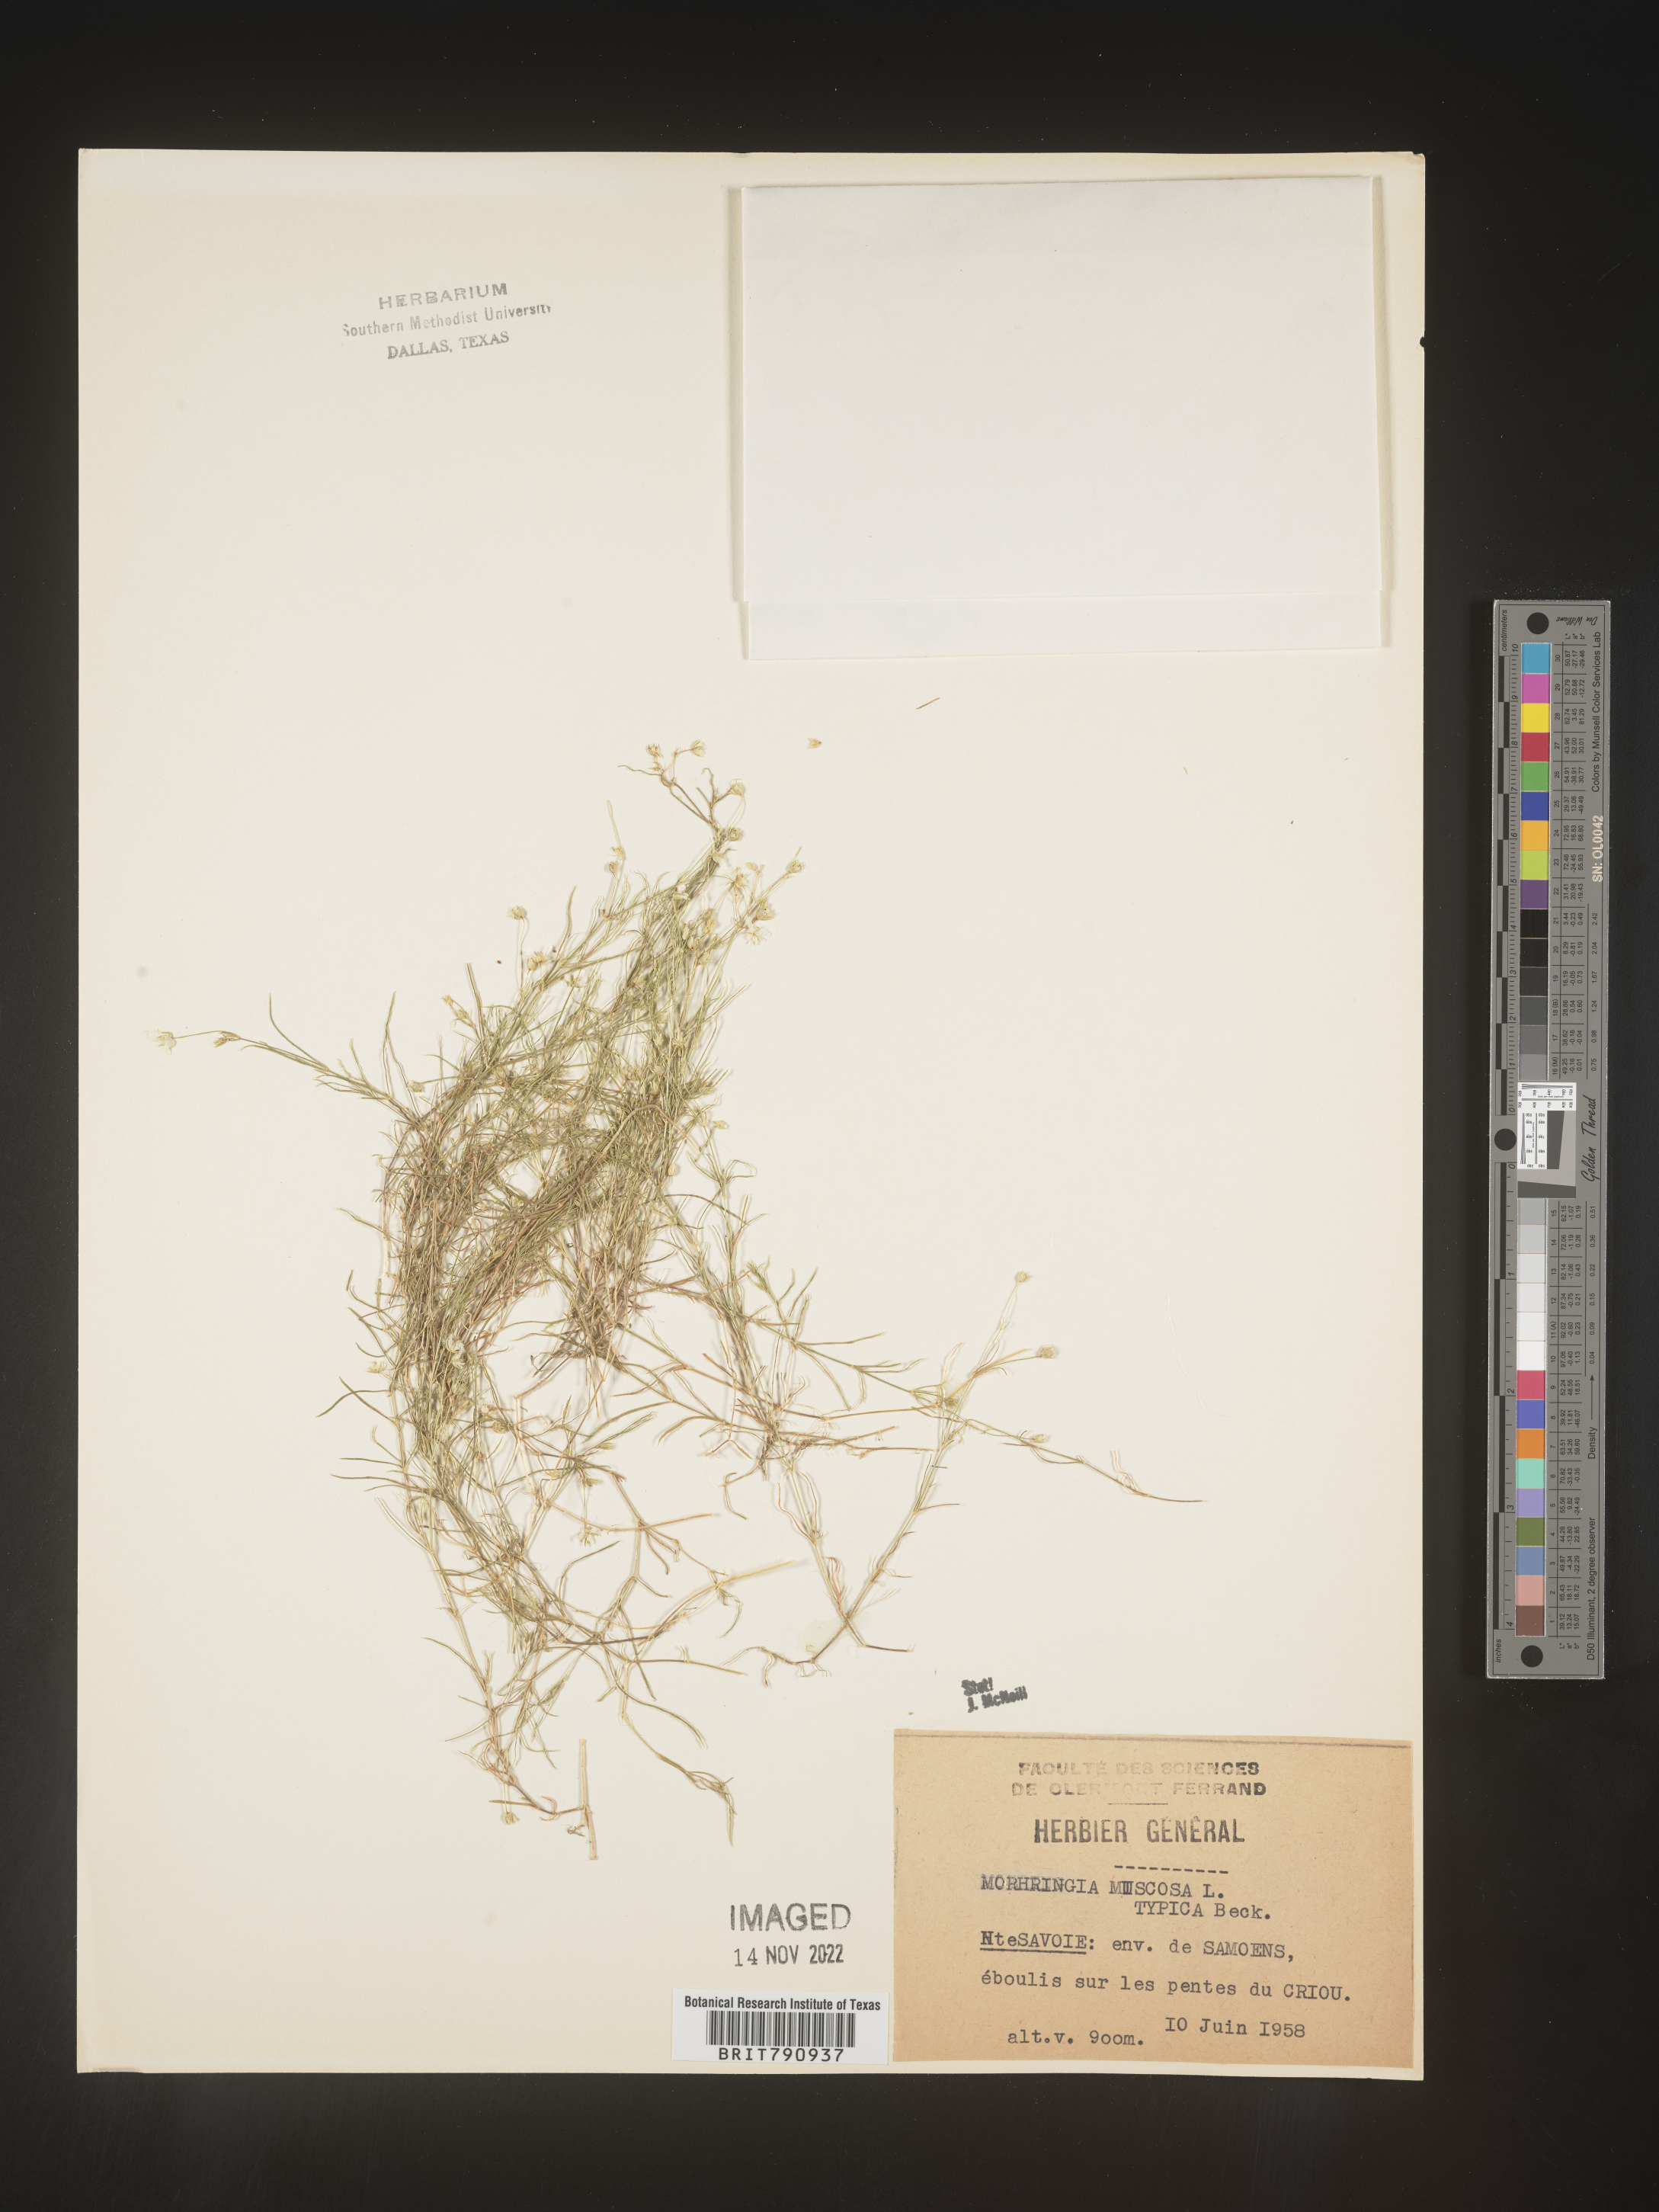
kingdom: Plantae
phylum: Tracheophyta
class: Magnoliopsida
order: Caryophyllales
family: Caryophyllaceae
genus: Moehringia
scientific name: Moehringia
